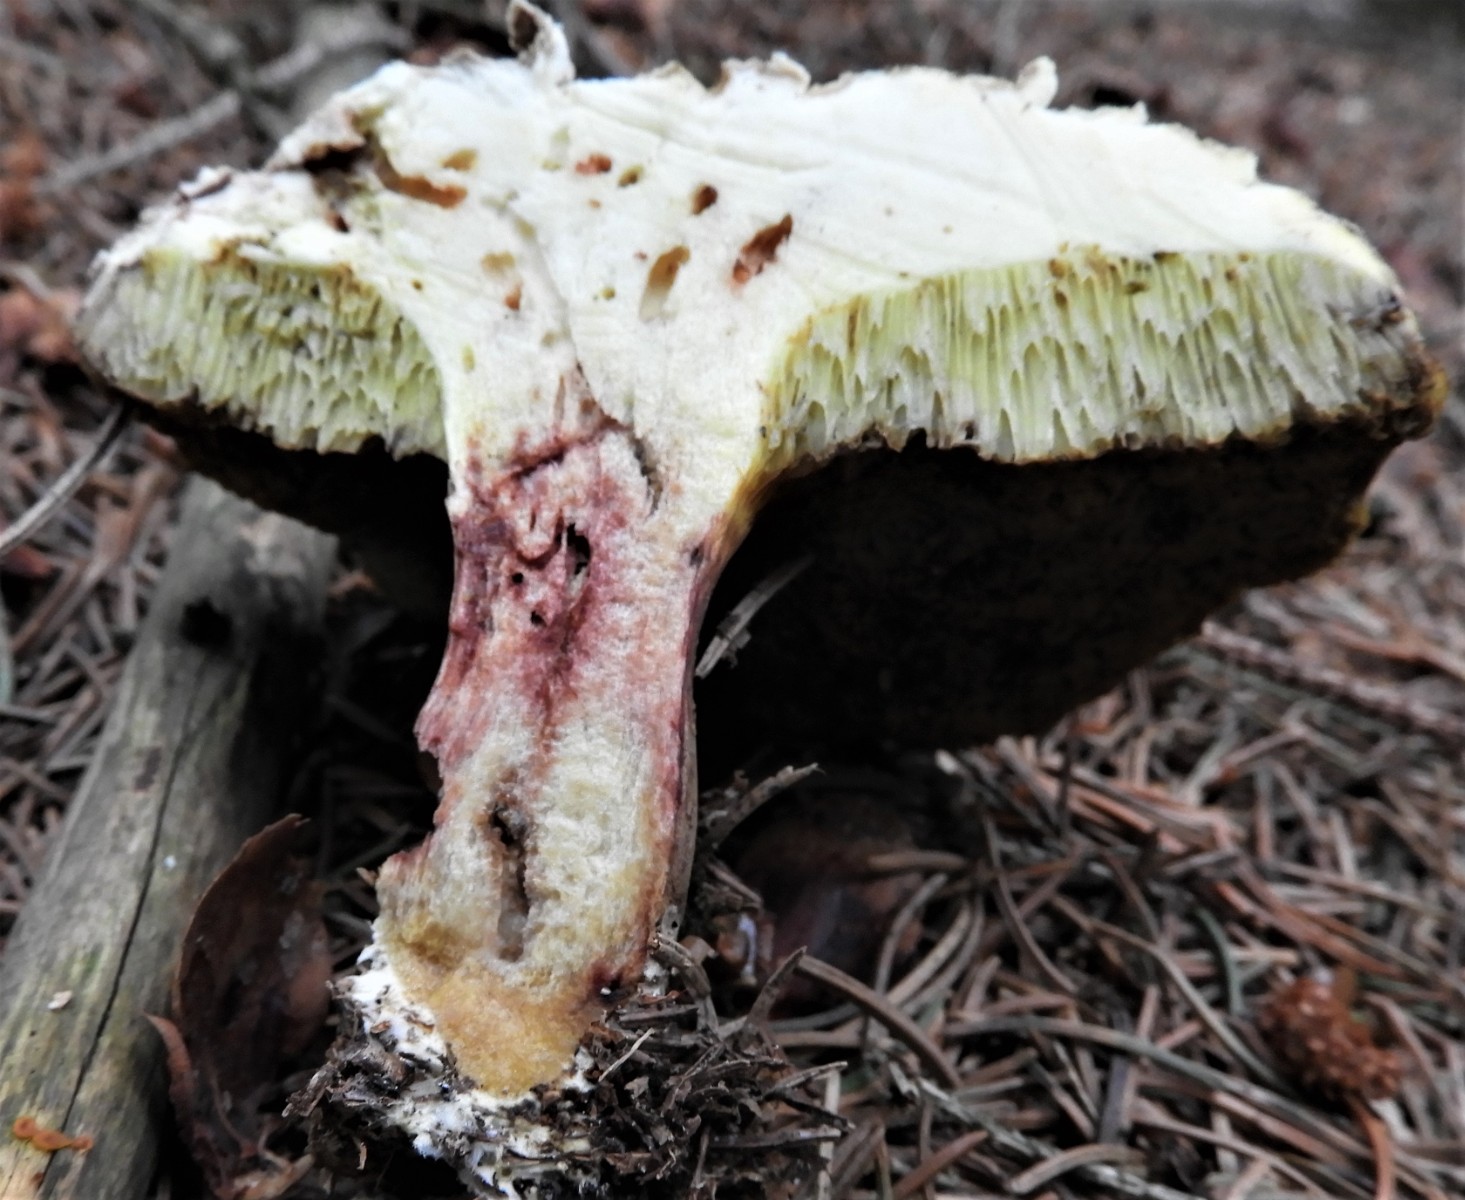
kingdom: Fungi
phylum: Basidiomycota
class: Agaricomycetes
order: Boletales
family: Boletaceae
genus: Xerocomellus
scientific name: Xerocomellus porosporus
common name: hvidsprukken rørhat
